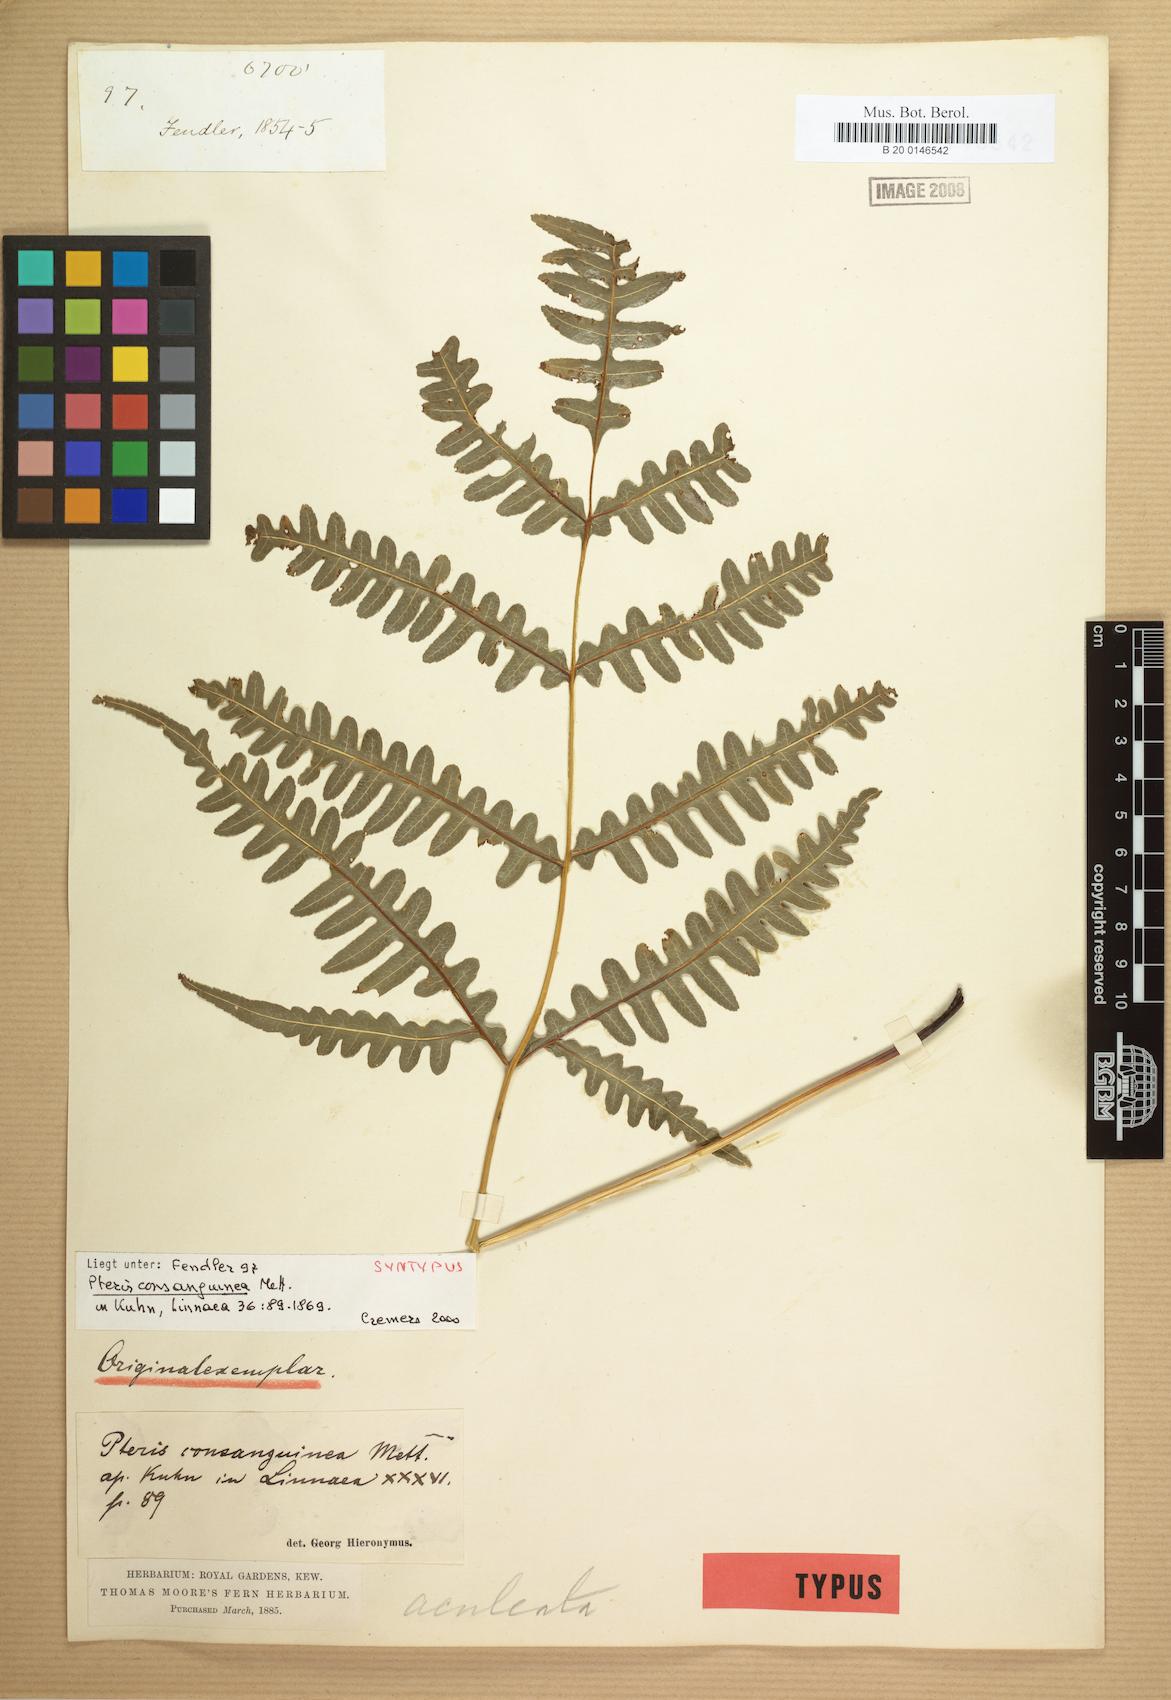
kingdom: Plantae
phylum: Tracheophyta
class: Polypodiopsida
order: Polypodiales
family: Pteridaceae
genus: Pteris
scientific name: Pteris consanguinea
